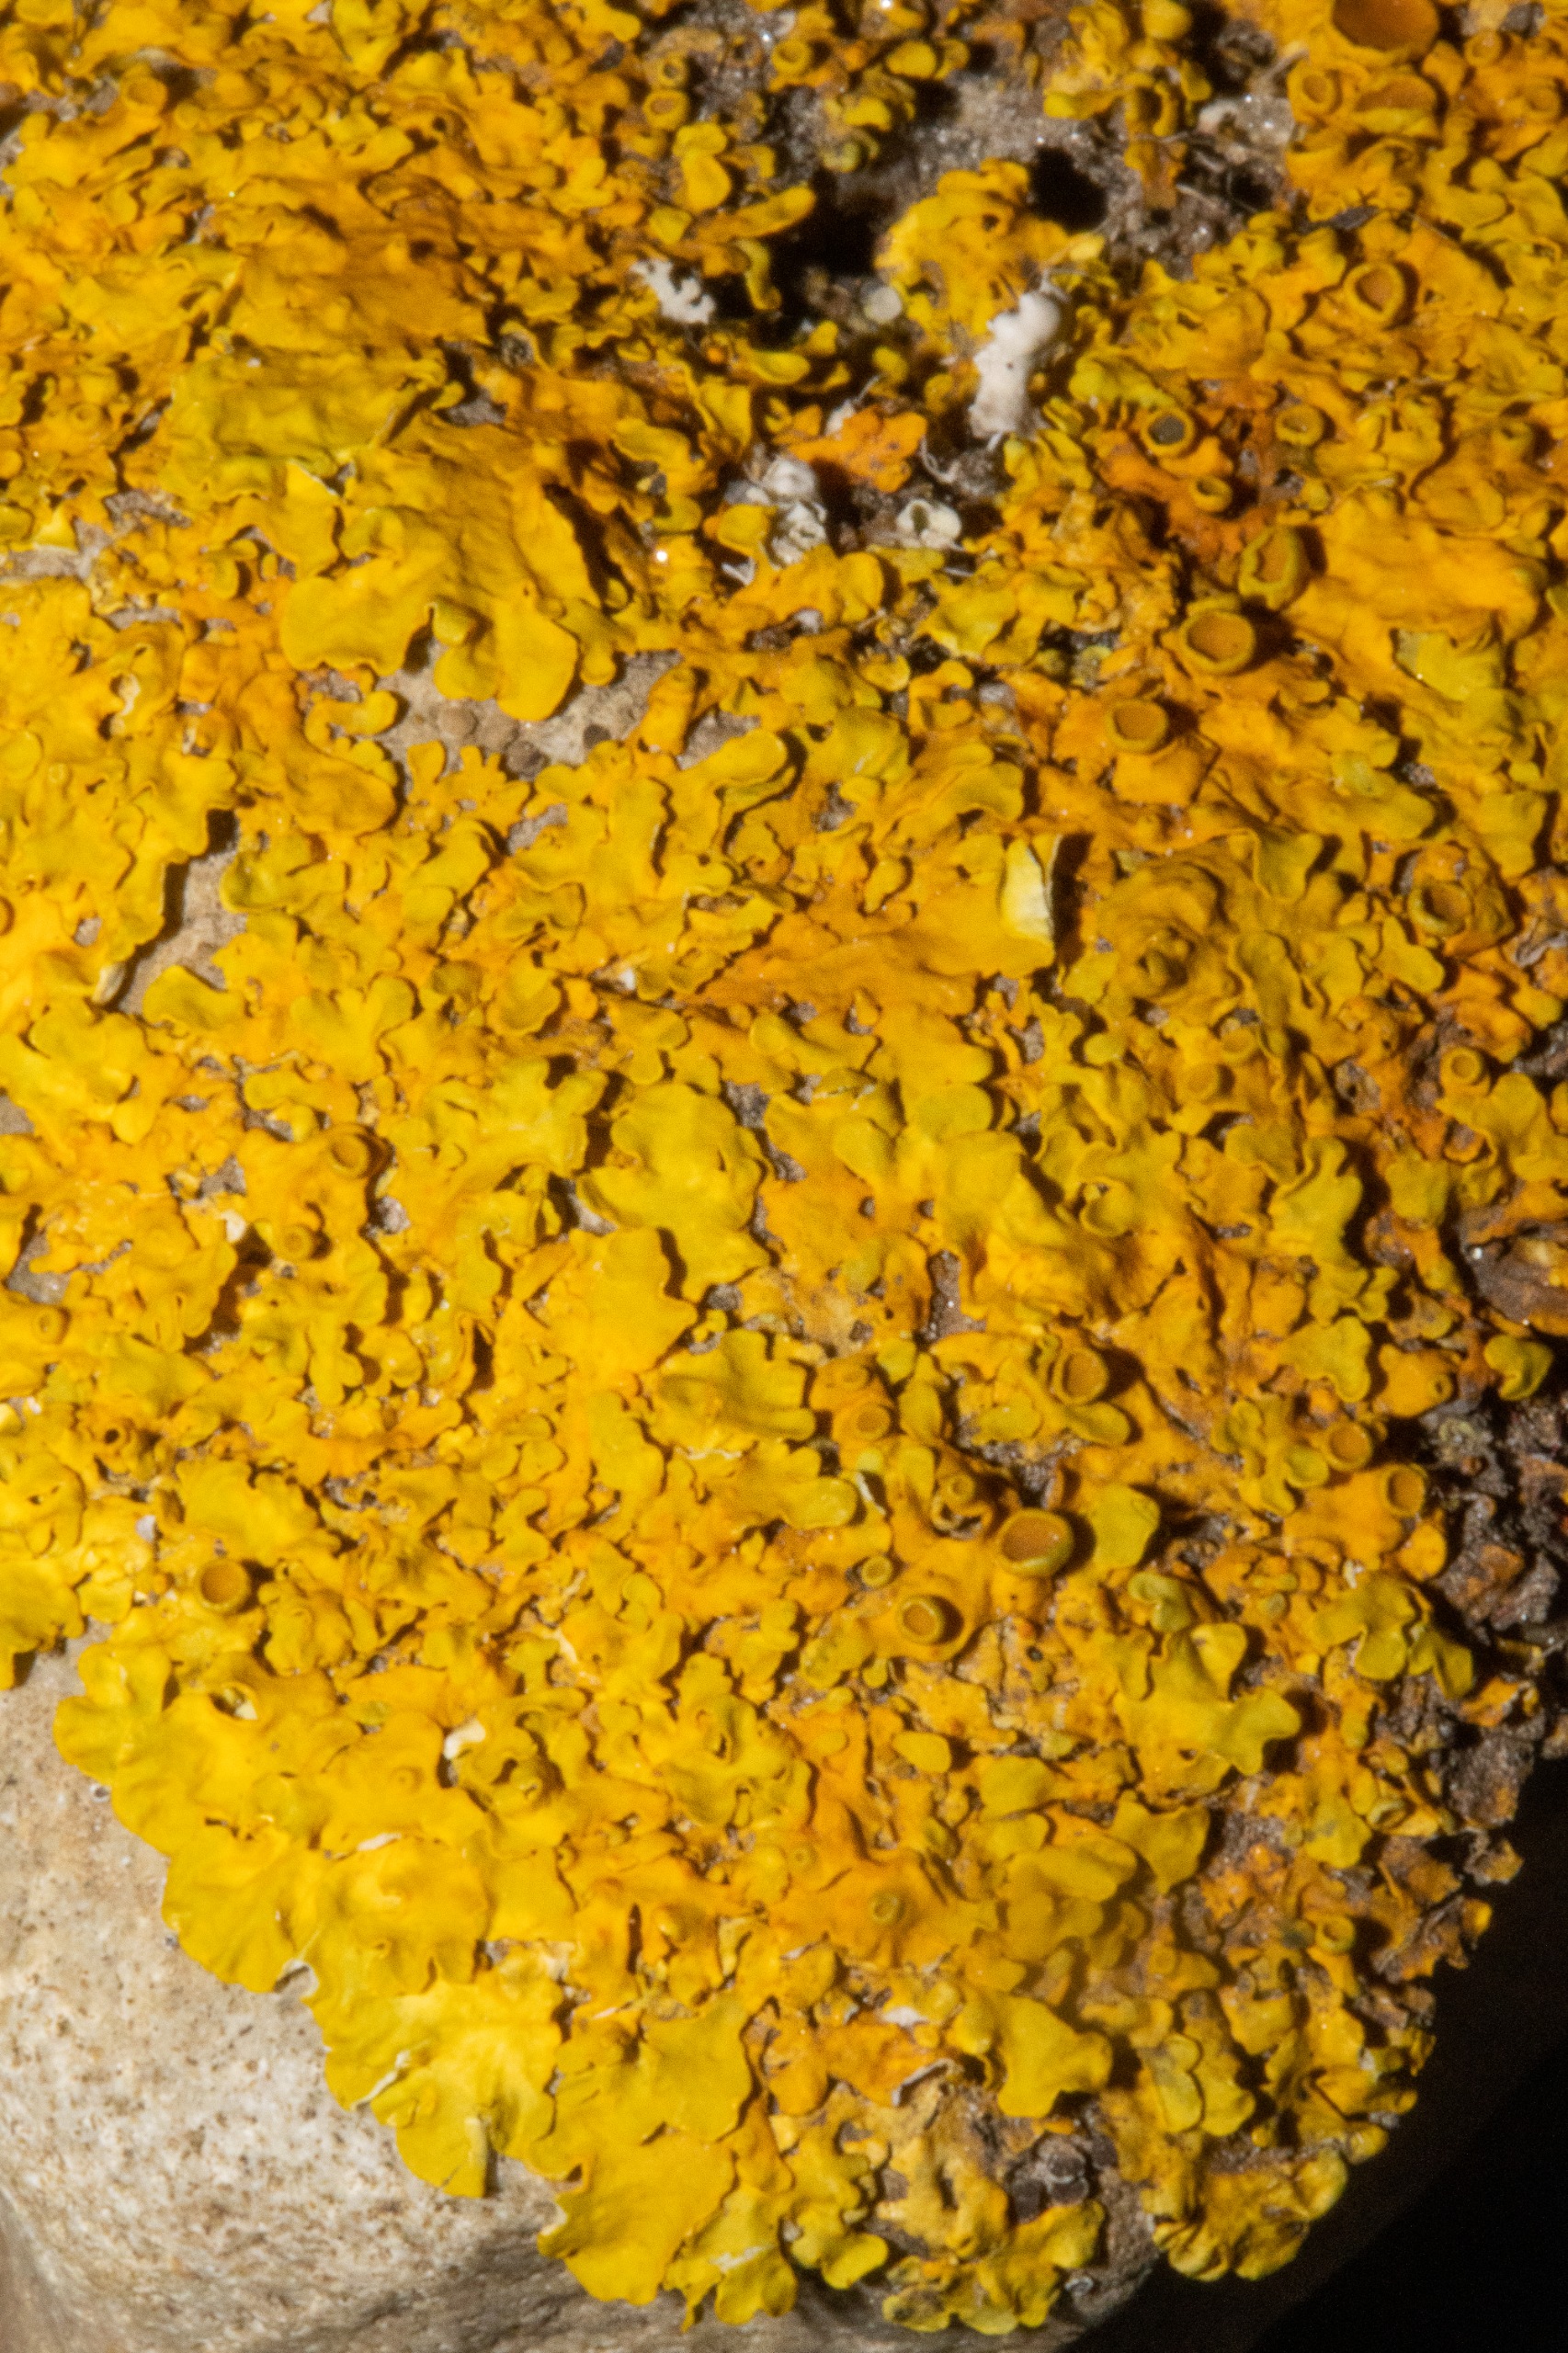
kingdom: Fungi
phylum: Ascomycota
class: Lecanoromycetes
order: Teloschistales
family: Teloschistaceae
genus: Xanthoria
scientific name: Xanthoria parietina
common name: Almindelig væggelav
